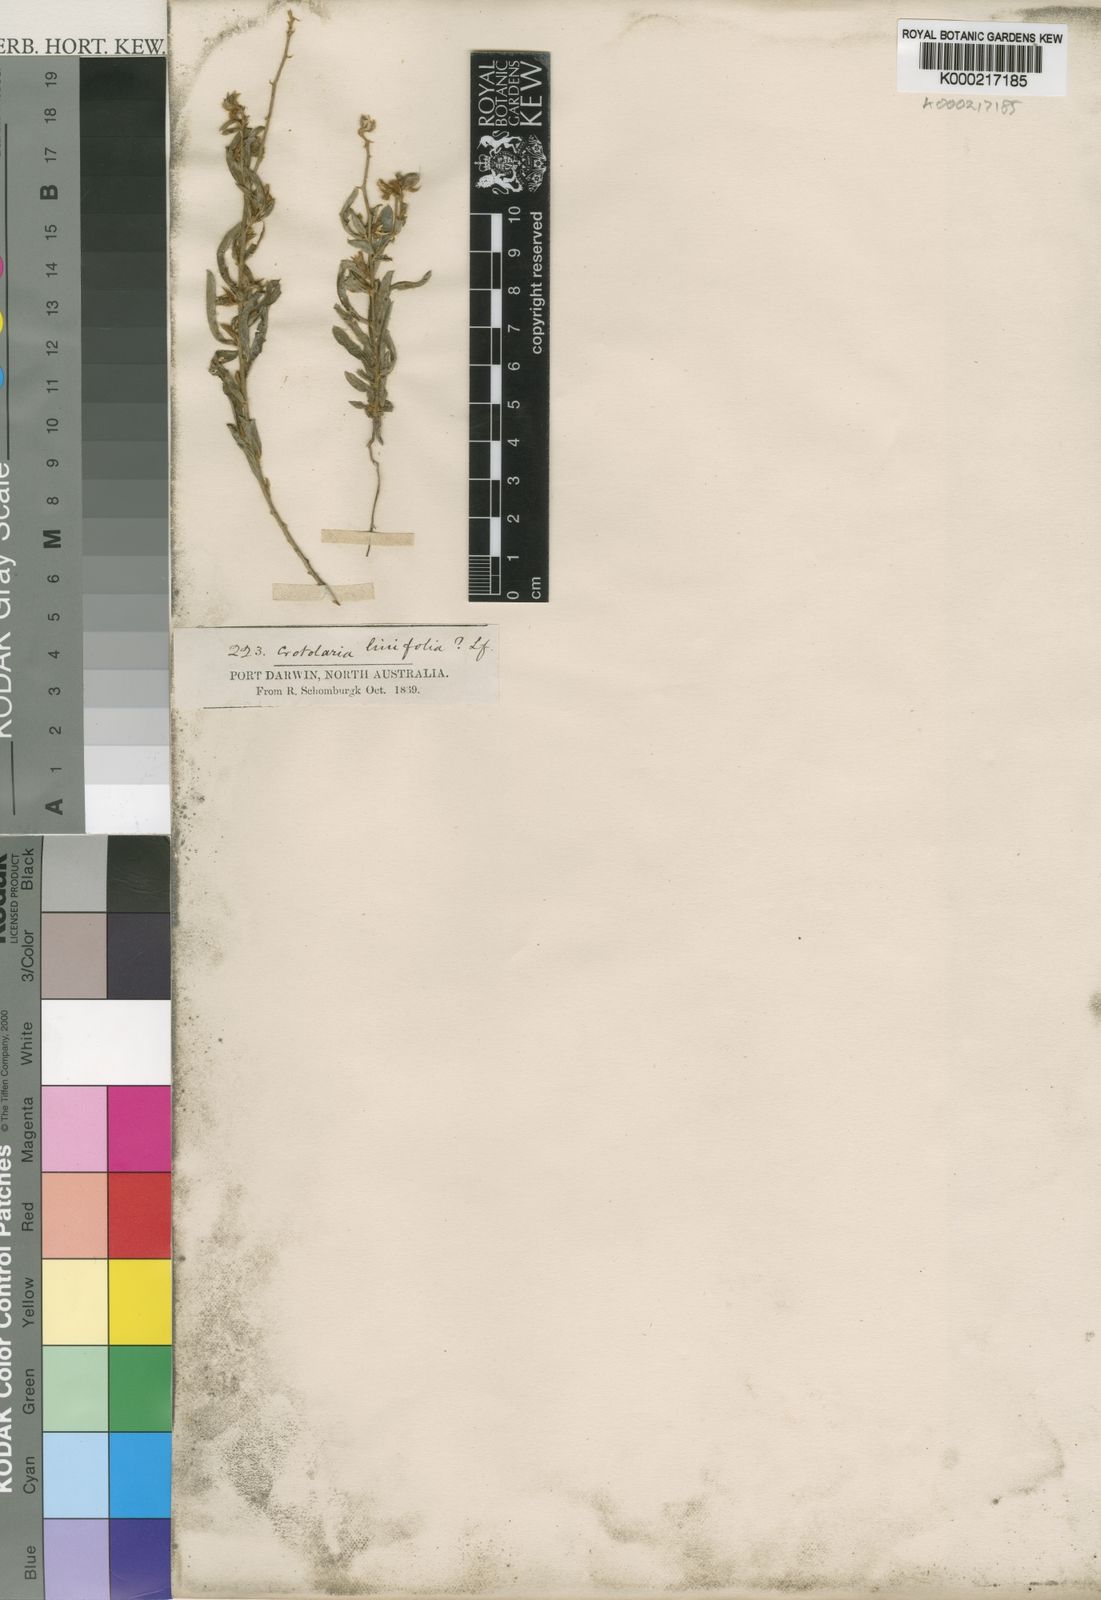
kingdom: Plantae
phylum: Tracheophyta
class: Magnoliopsida
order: Fabales
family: Fabaceae
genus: Crotalaria
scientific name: Crotalaria linifolia
